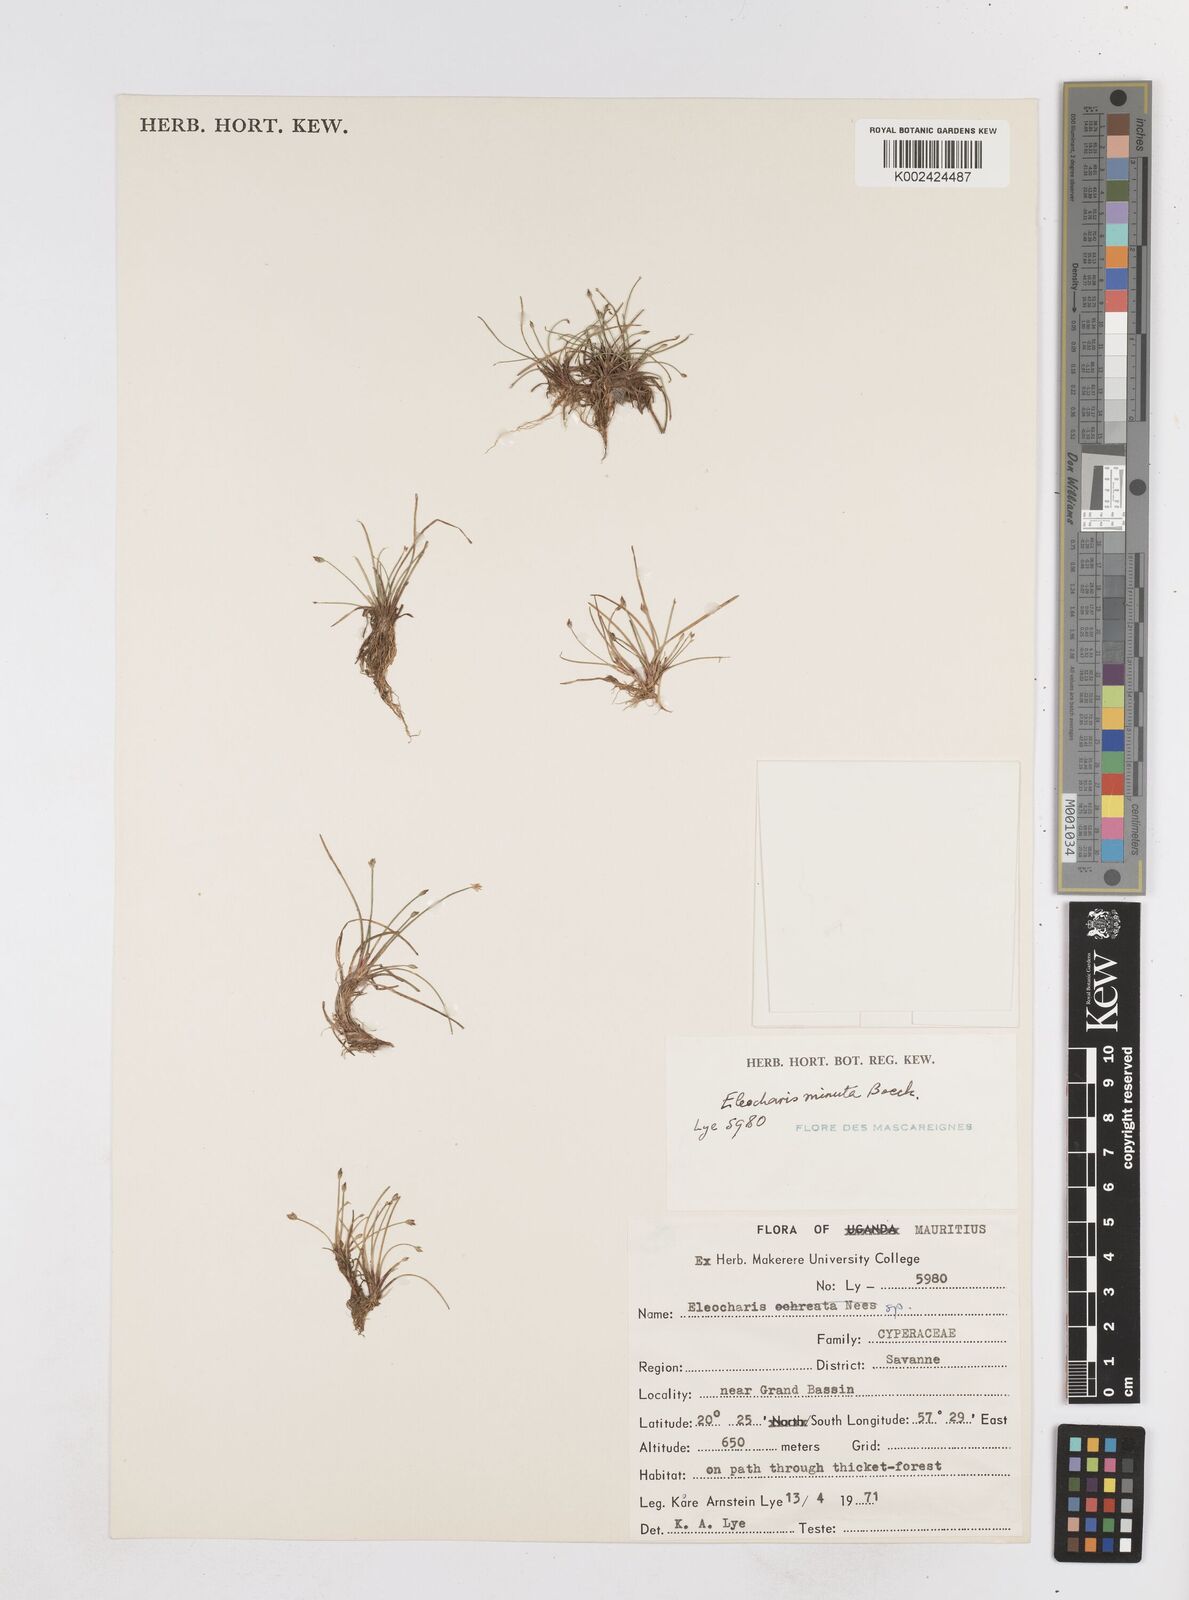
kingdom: Plantae
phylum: Tracheophyta
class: Liliopsida
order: Poales
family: Cyperaceae
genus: Eleocharis
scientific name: Eleocharis minuta
